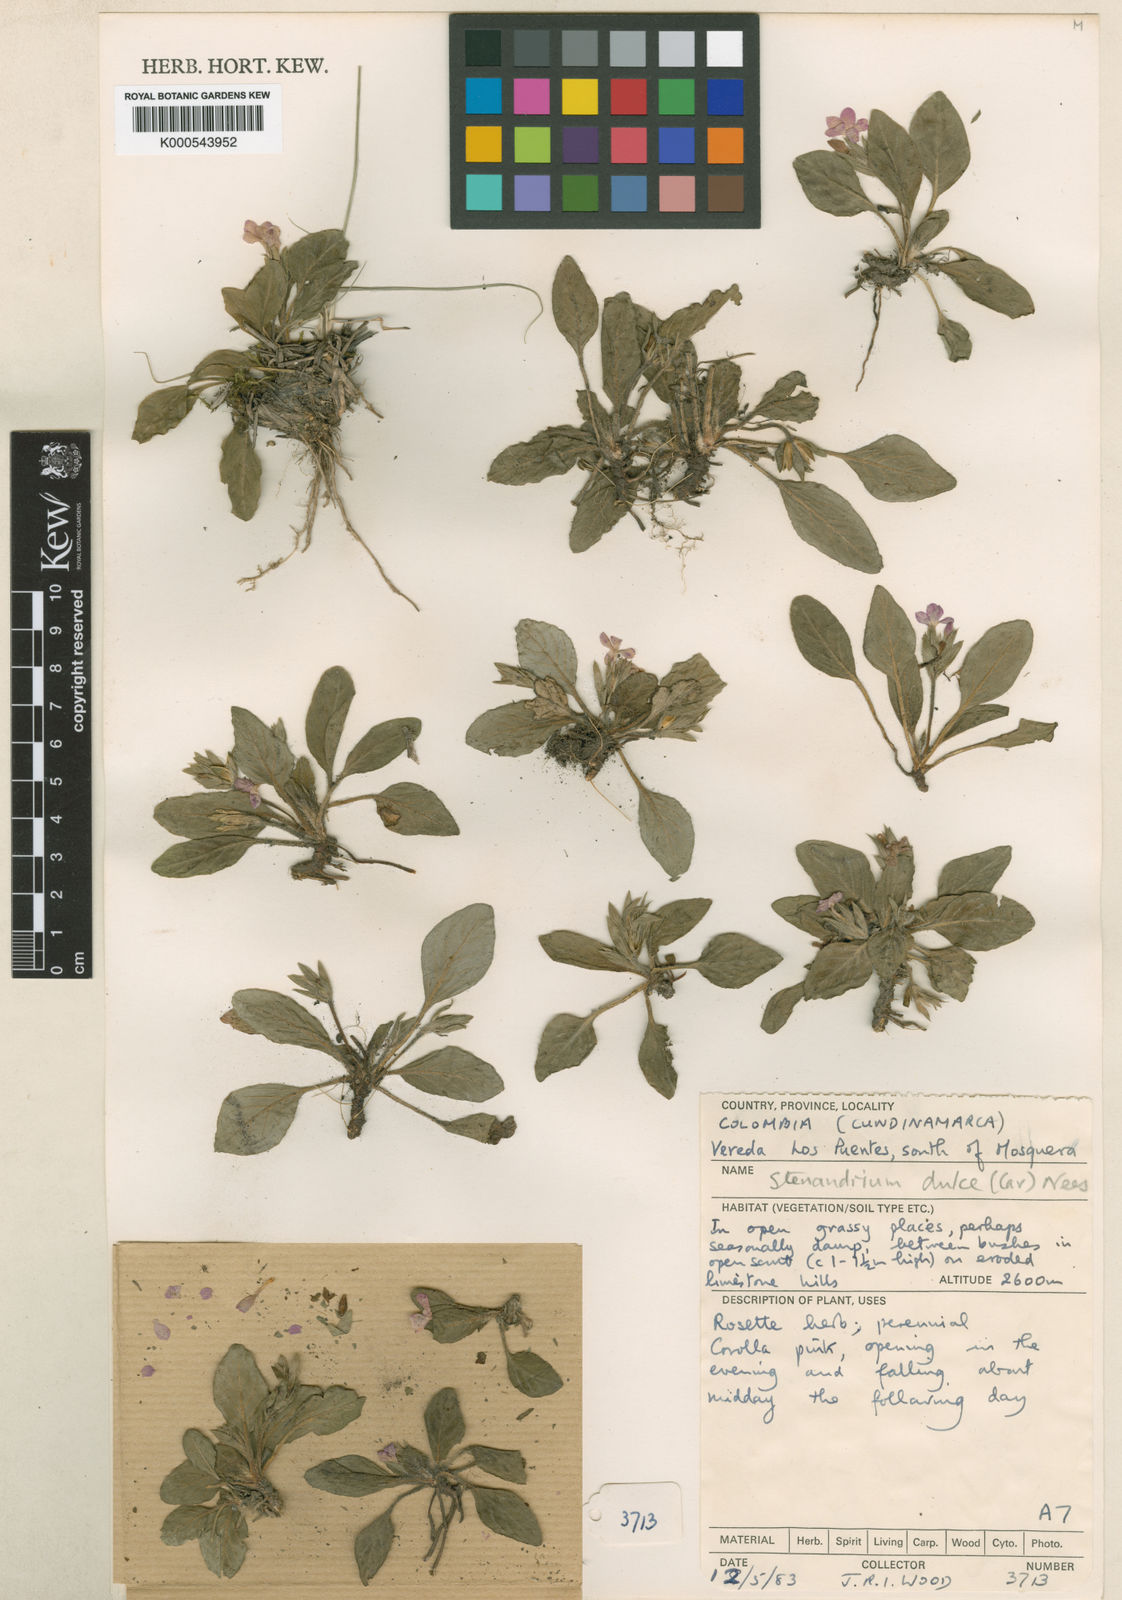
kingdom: Plantae
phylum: Tracheophyta
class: Magnoliopsida
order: Lamiales
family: Acanthaceae
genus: Stenandrium
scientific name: Stenandrium dulce
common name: Pinklet
